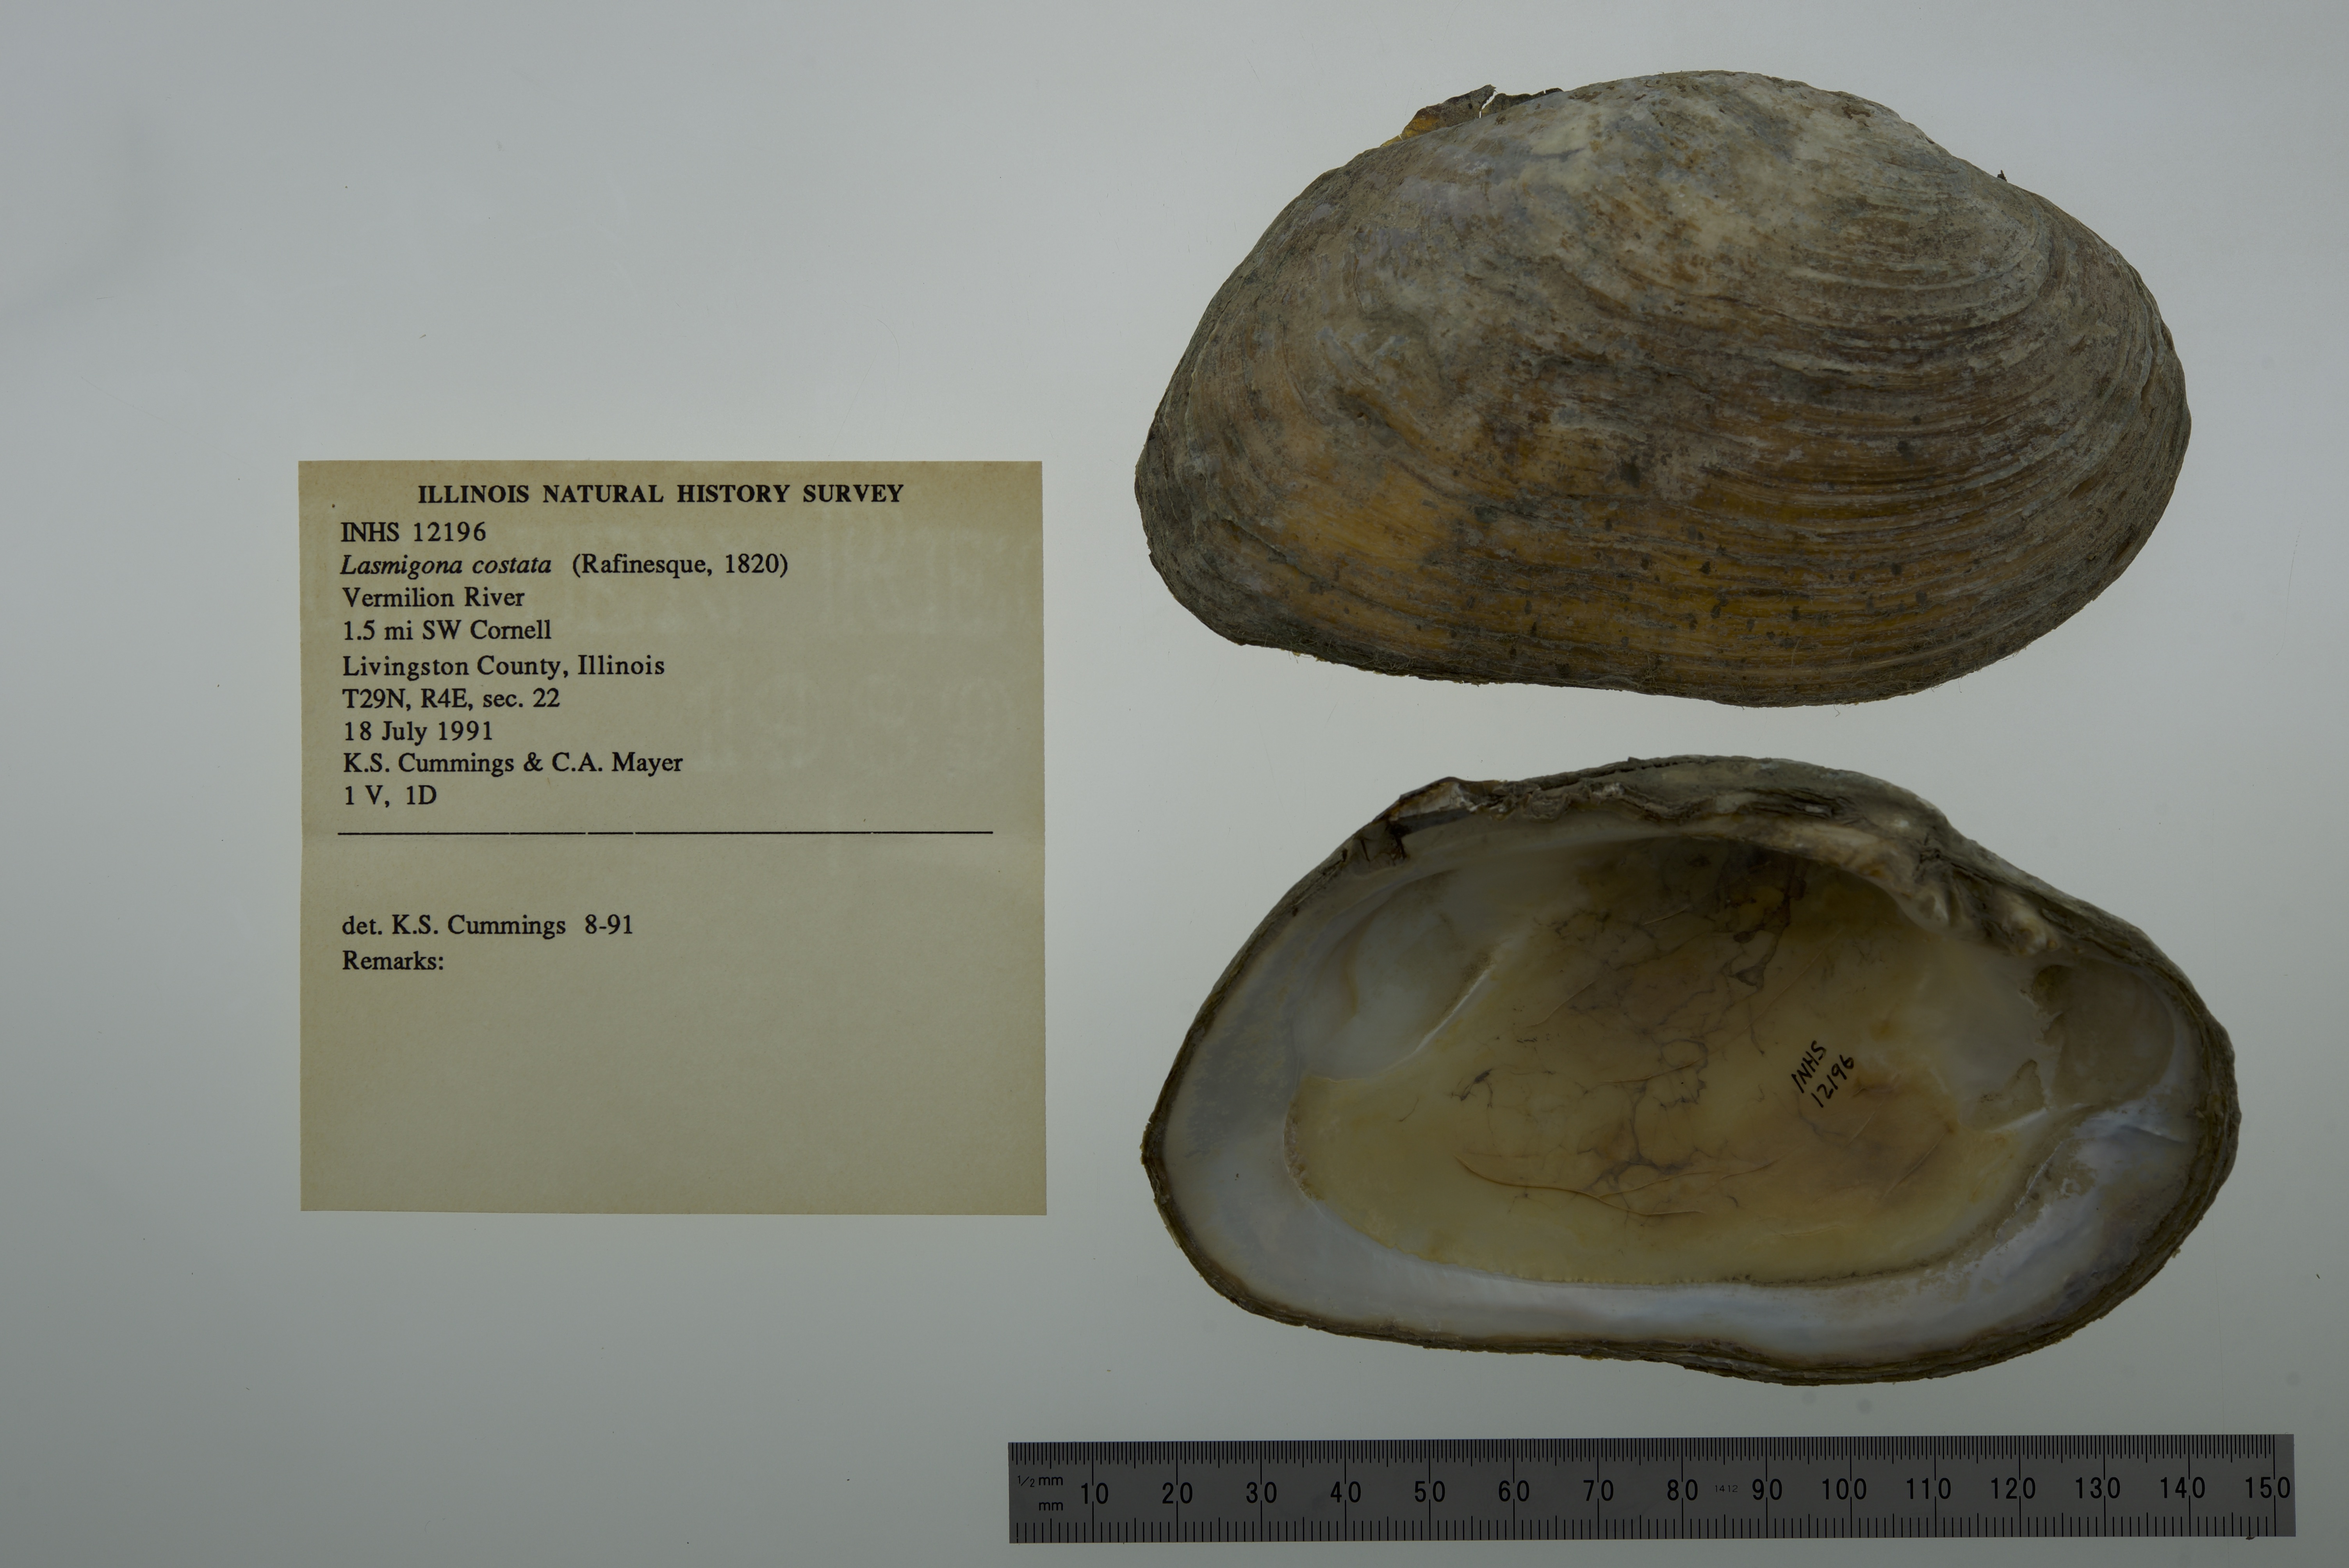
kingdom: Animalia
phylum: Mollusca
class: Bivalvia
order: Unionida
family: Unionidae
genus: Lasmigona
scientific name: Lasmigona costata
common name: Flutedshell
